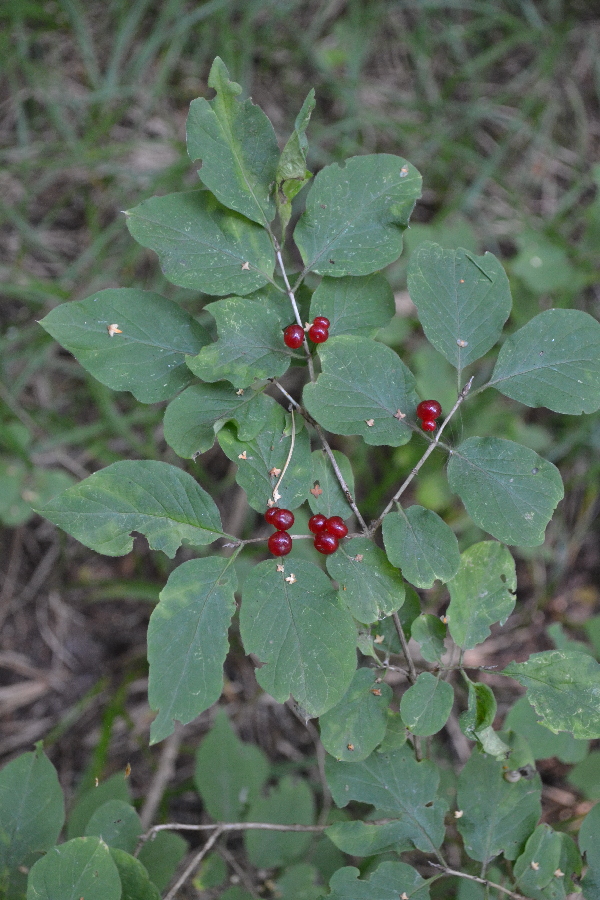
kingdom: Plantae
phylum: Tracheophyta
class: Magnoliopsida
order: Dipsacales
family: Caprifoliaceae
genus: Lonicera
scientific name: Lonicera tatarica
